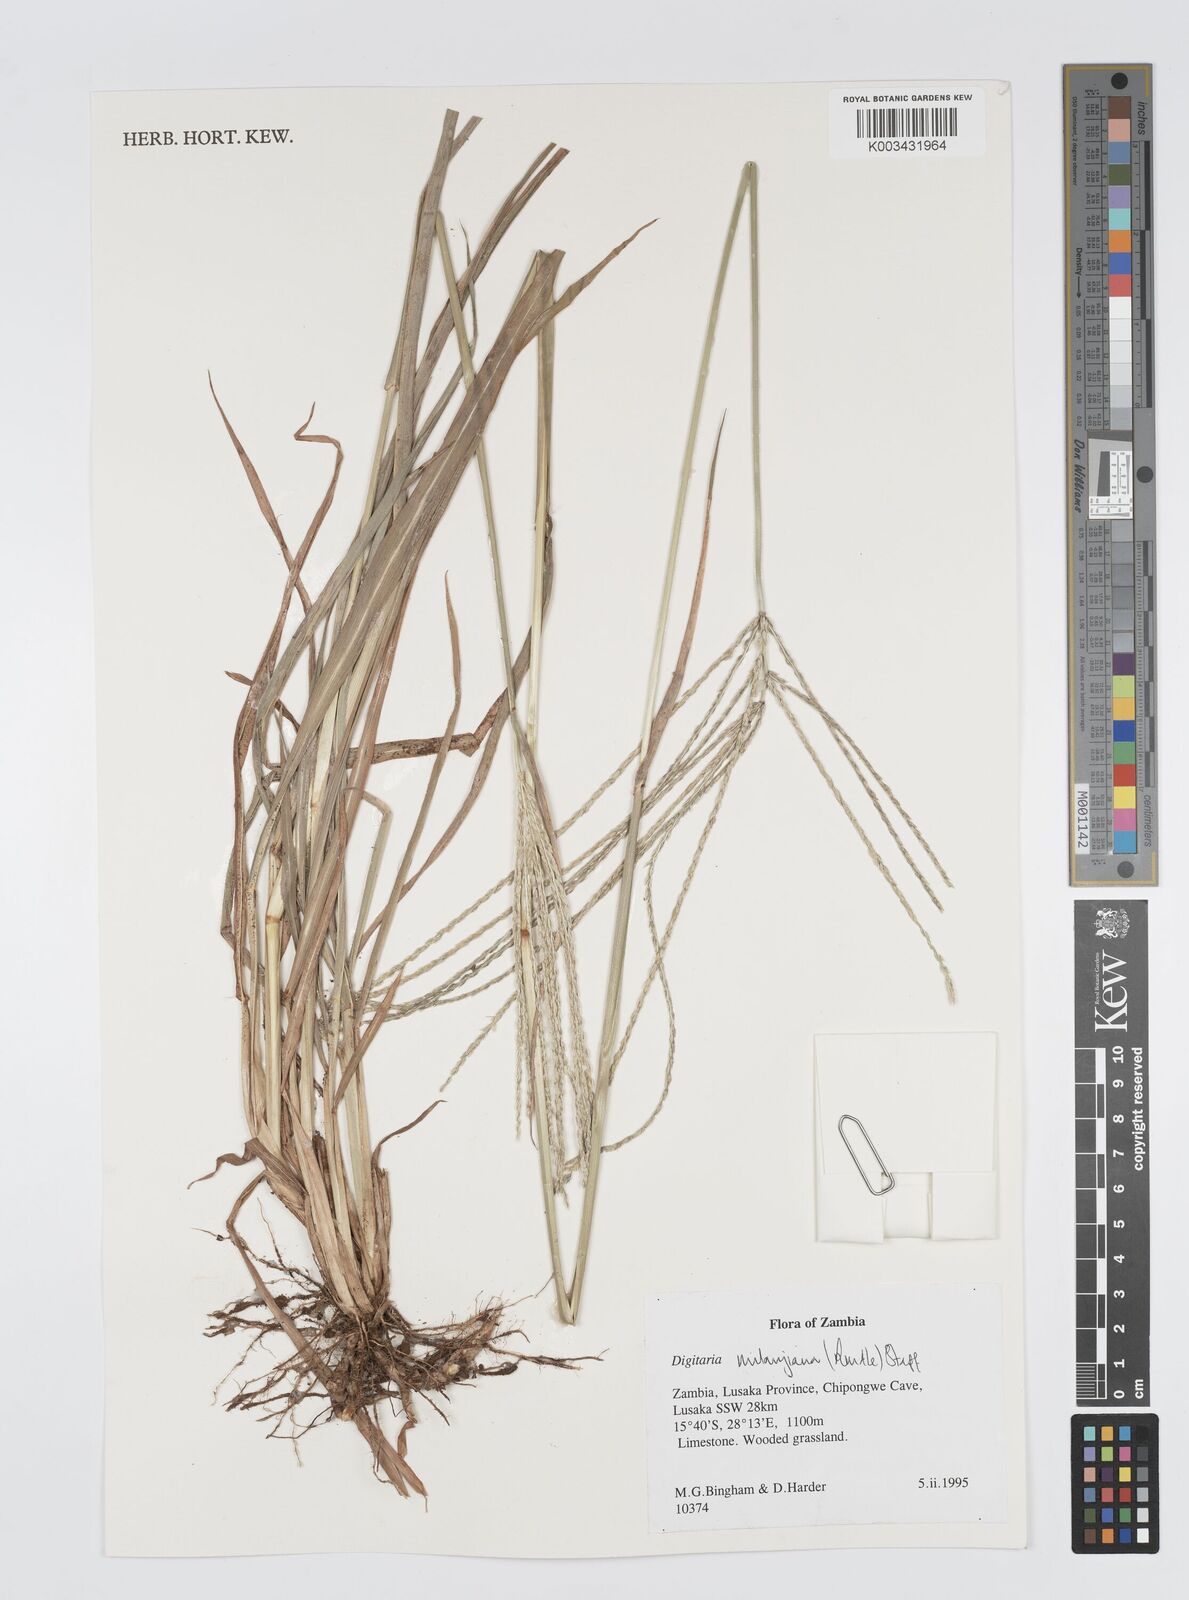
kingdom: Plantae
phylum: Tracheophyta
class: Liliopsida
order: Poales
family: Poaceae
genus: Digitaria
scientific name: Digitaria milanjiana
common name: Madagascar crabgrass
